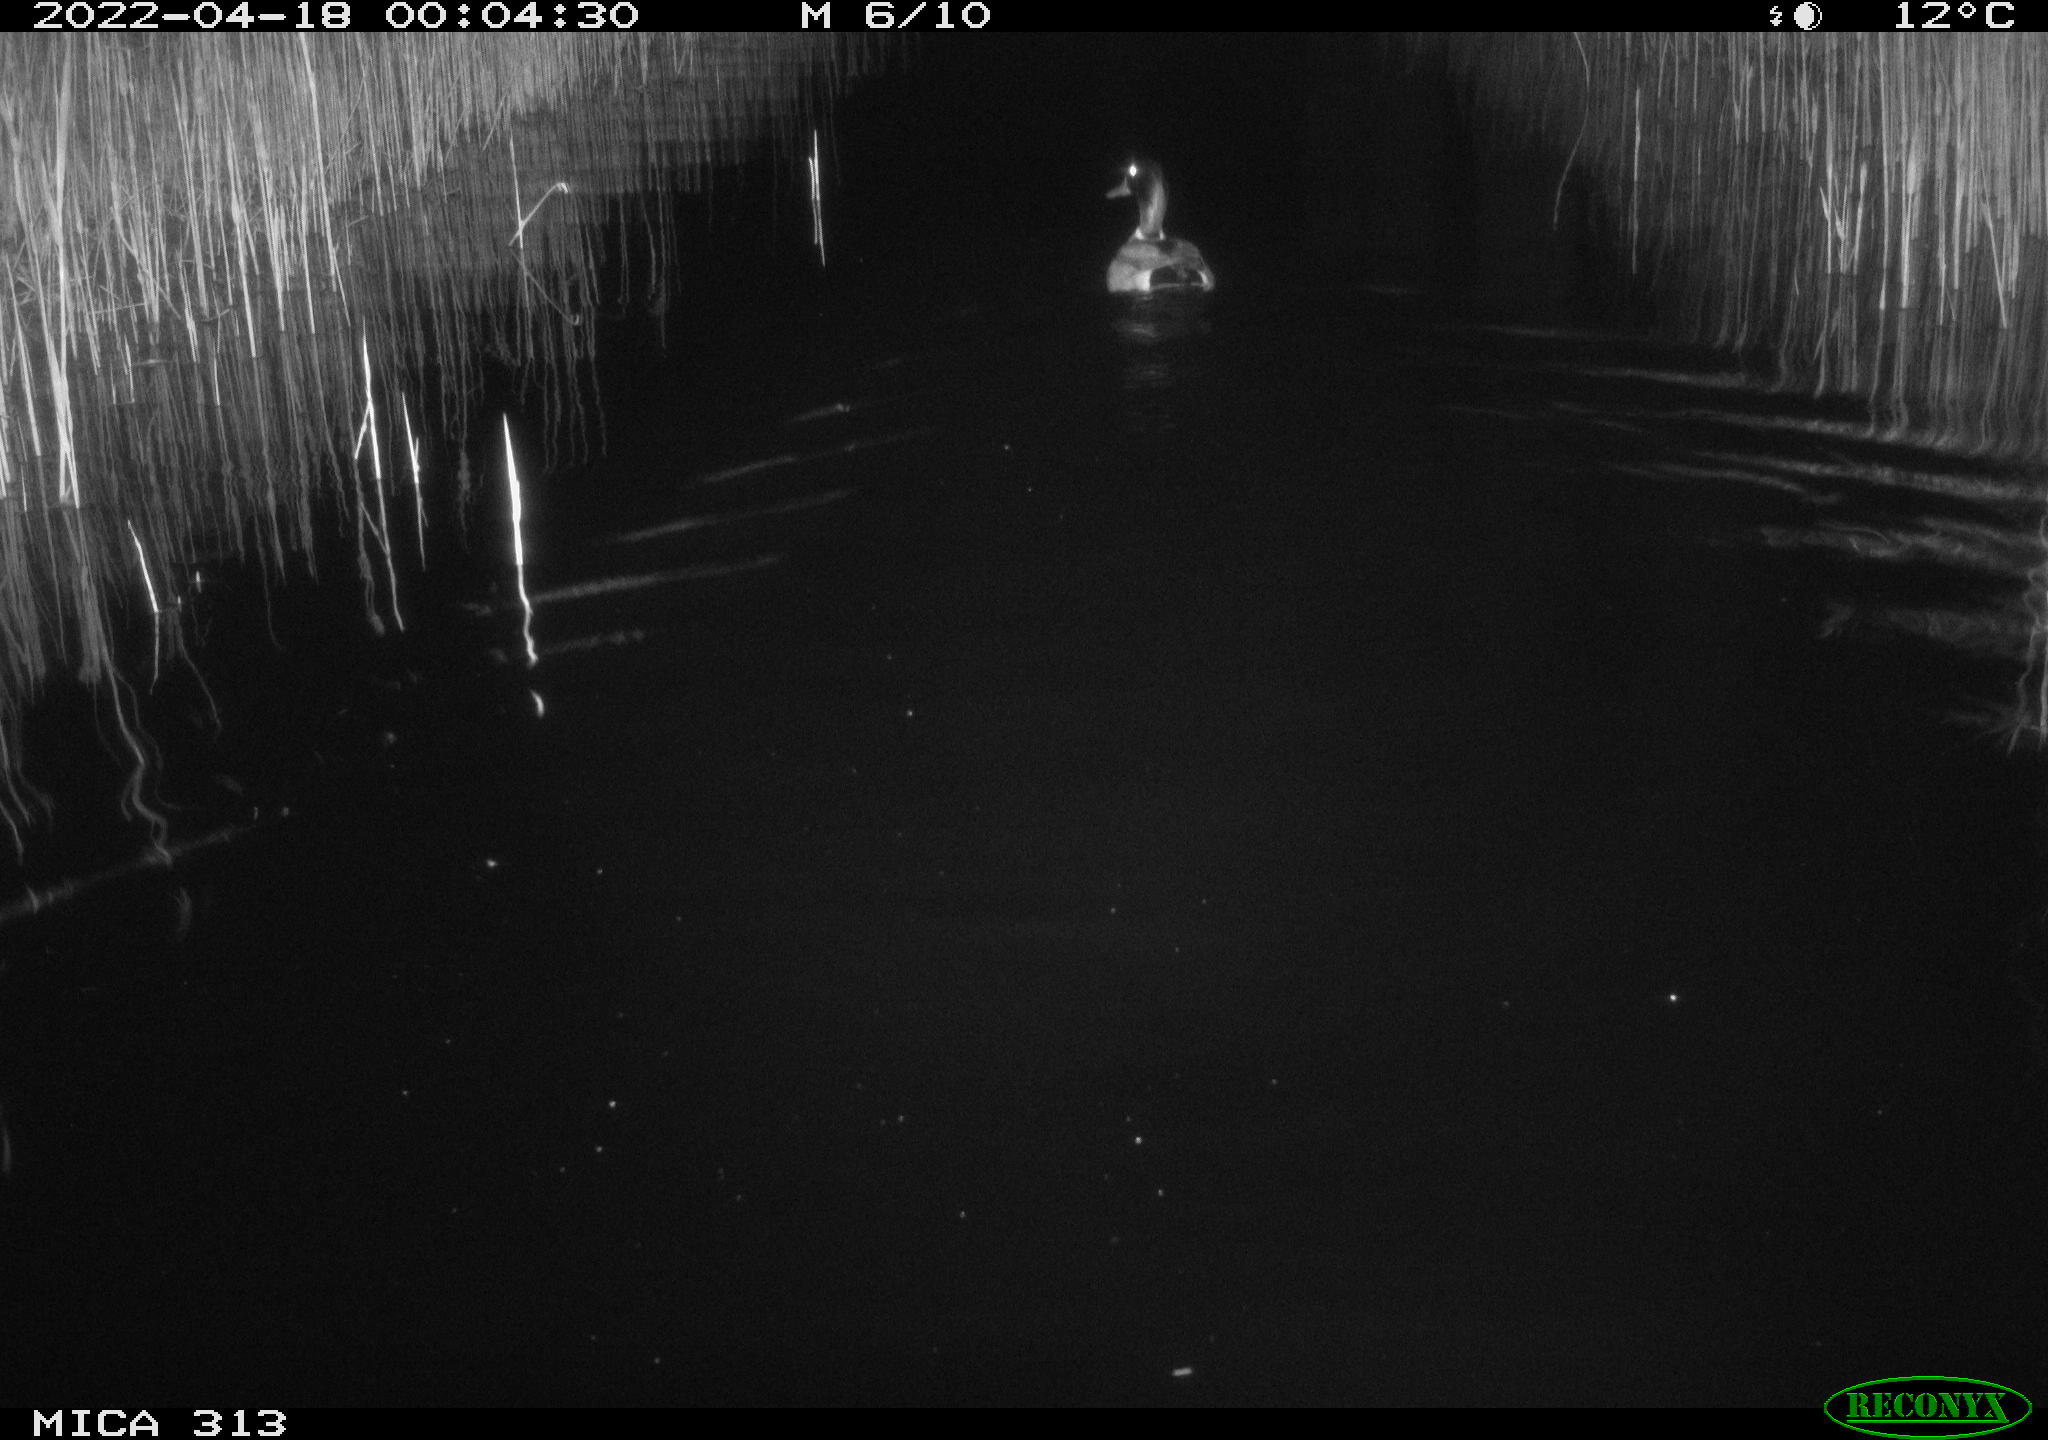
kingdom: Animalia
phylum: Chordata
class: Aves
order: Anseriformes
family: Anatidae
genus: Anas
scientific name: Anas platyrhynchos
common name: Mallard
